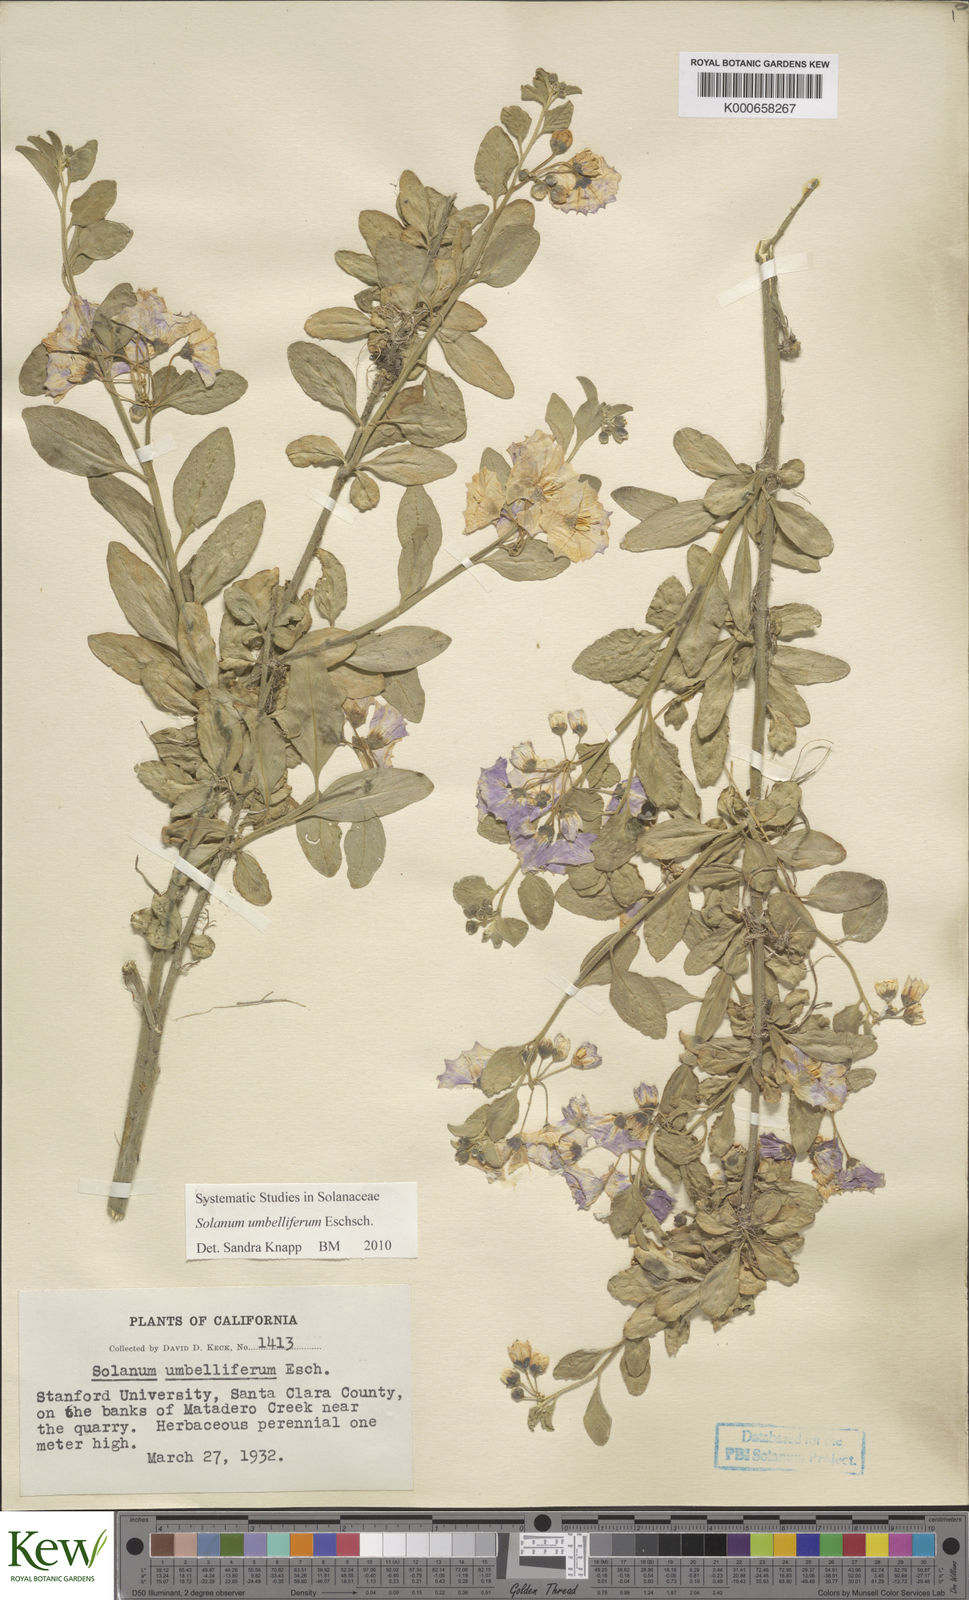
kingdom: Plantae
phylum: Tracheophyta
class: Magnoliopsida
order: Solanales
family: Solanaceae
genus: Solanum
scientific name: Solanum umbelliferum
